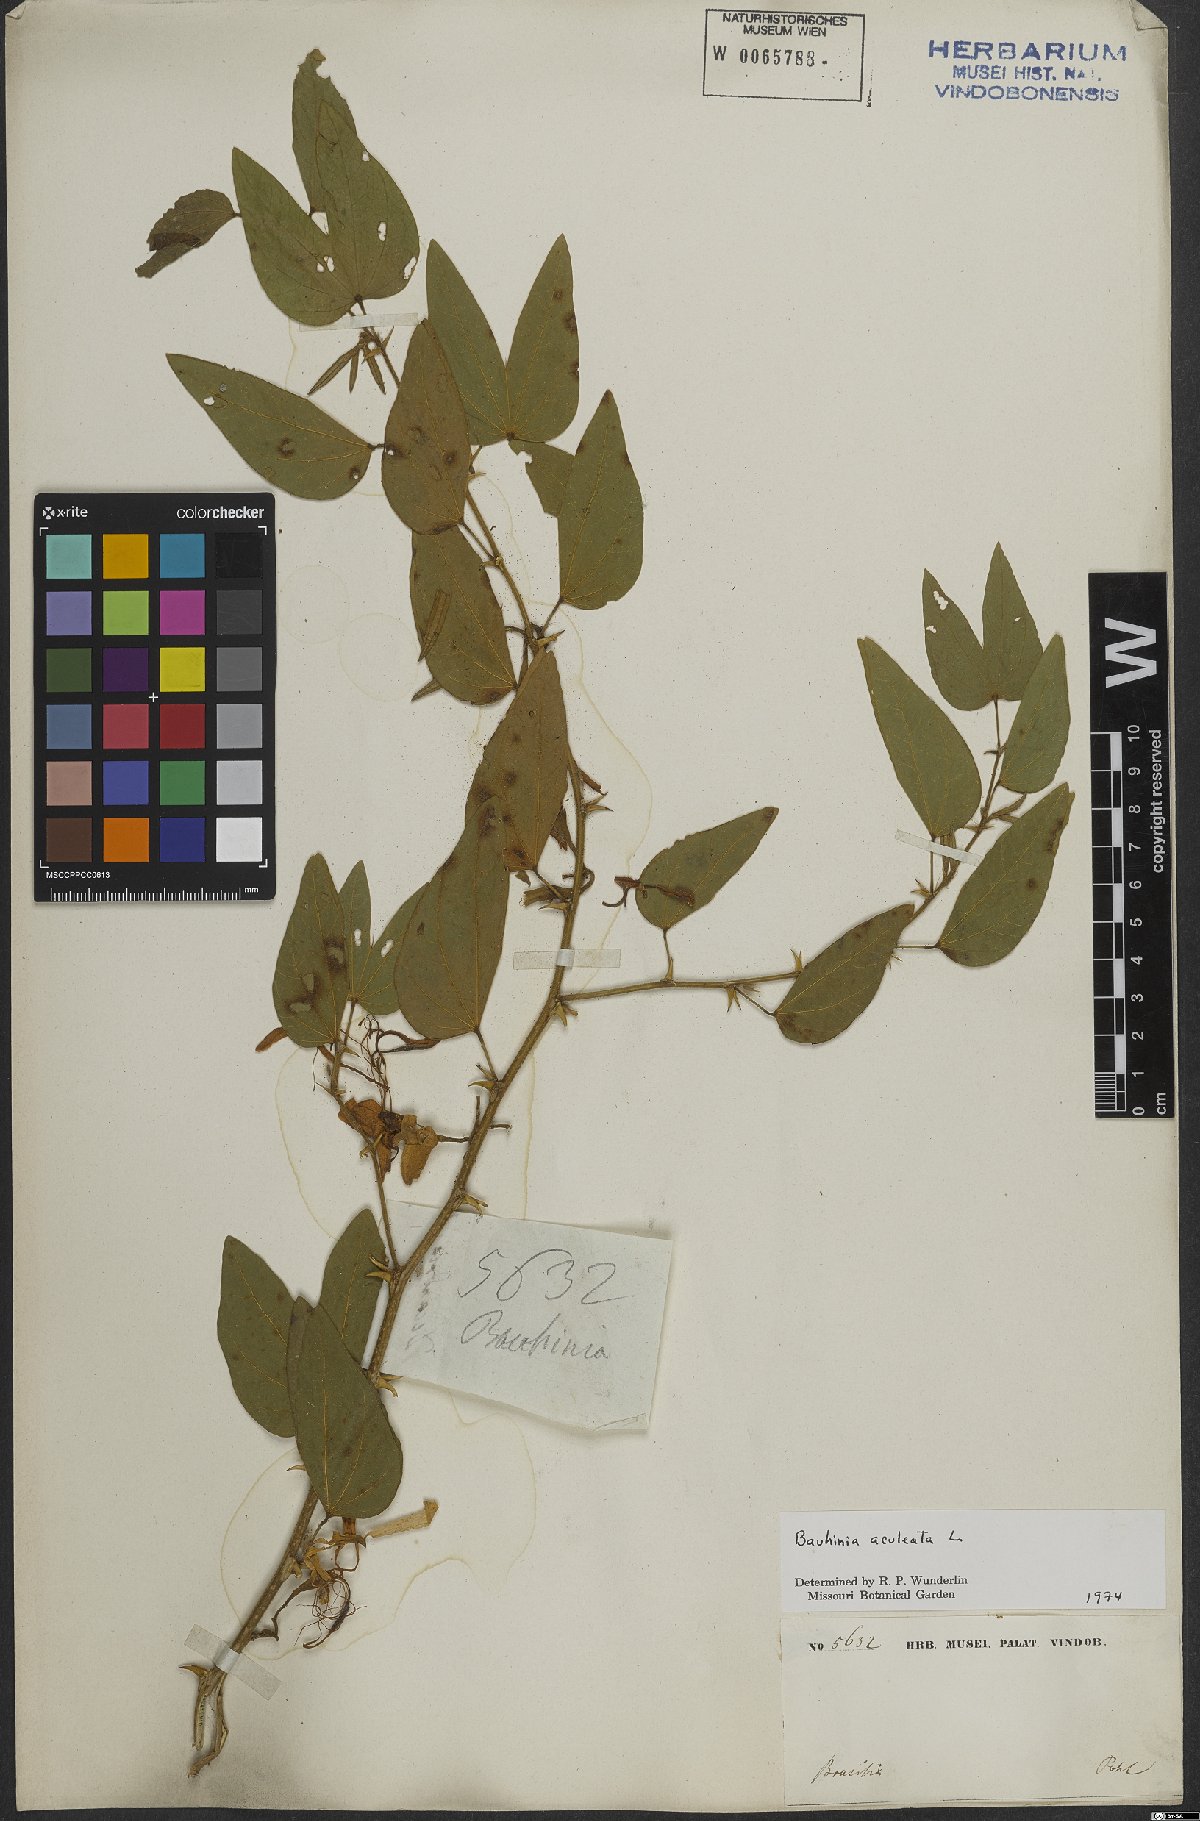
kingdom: Plantae
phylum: Tracheophyta
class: Magnoliopsida
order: Fabales
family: Fabaceae
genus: Bauhinia
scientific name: Bauhinia aculeata
